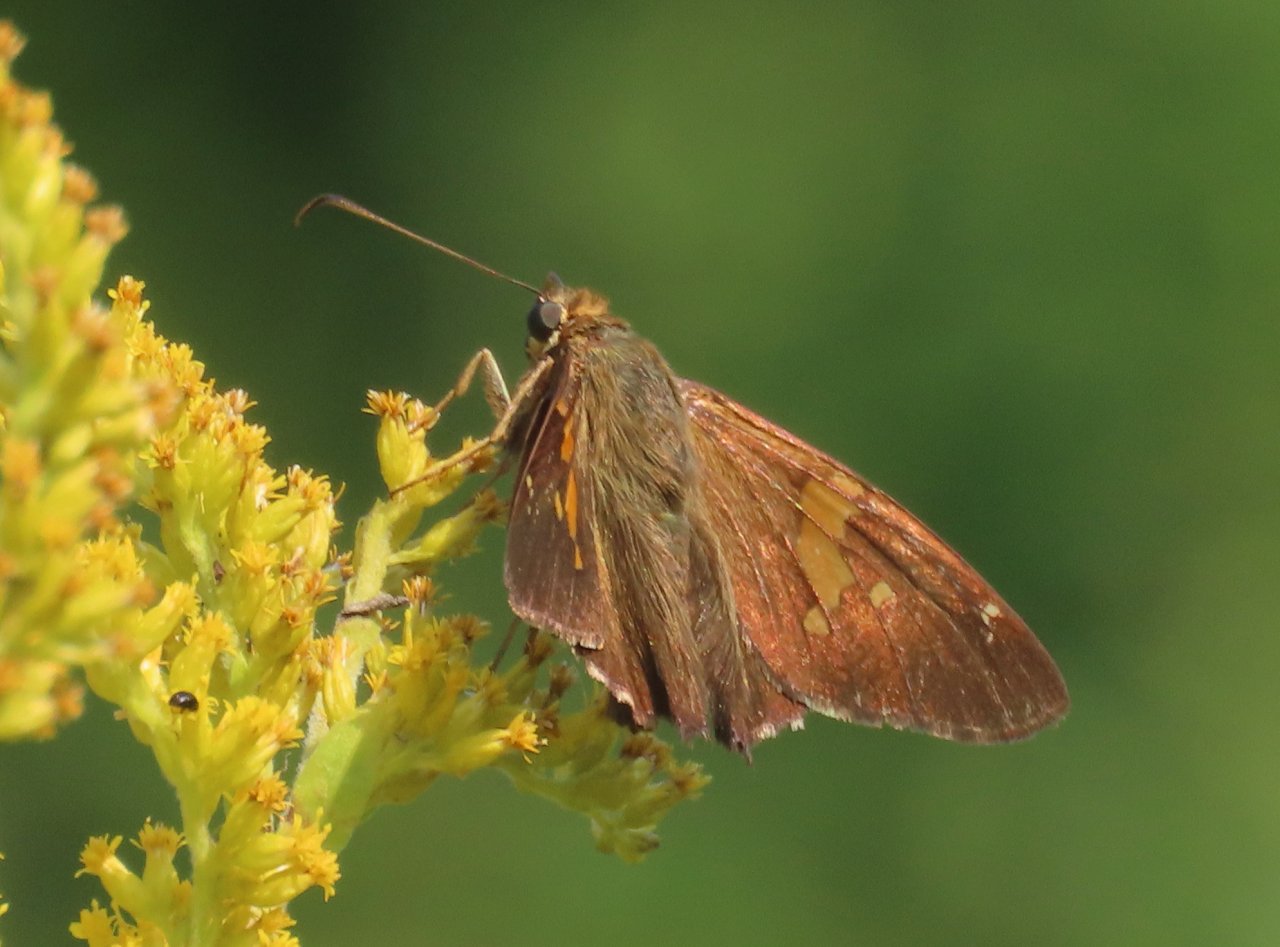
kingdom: Animalia
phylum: Arthropoda
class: Insecta
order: Lepidoptera
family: Hesperiidae
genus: Epargyreus
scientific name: Epargyreus clarus
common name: Silver-spotted Skipper
